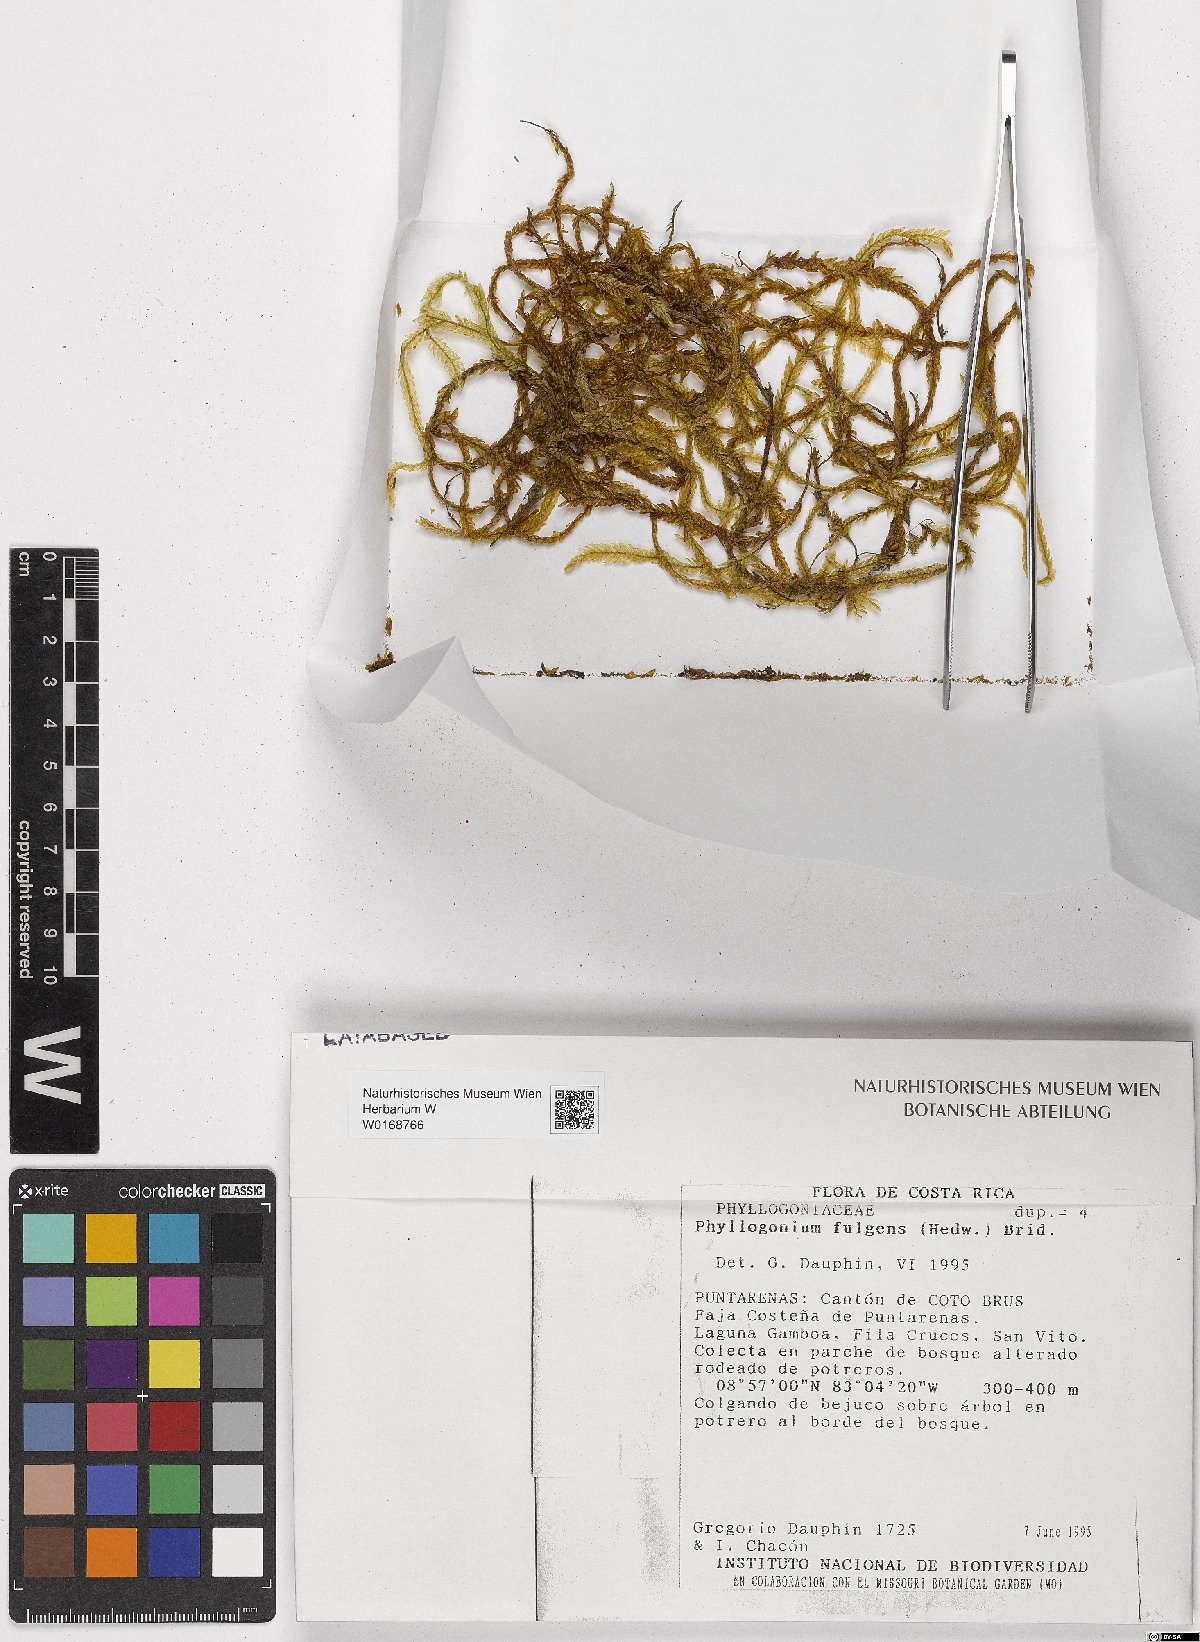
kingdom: Plantae
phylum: Bryophyta
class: Bryopsida
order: Hypnales
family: Phyllogoniaceae
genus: Phyllogonium
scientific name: Phyllogonium fulgens
